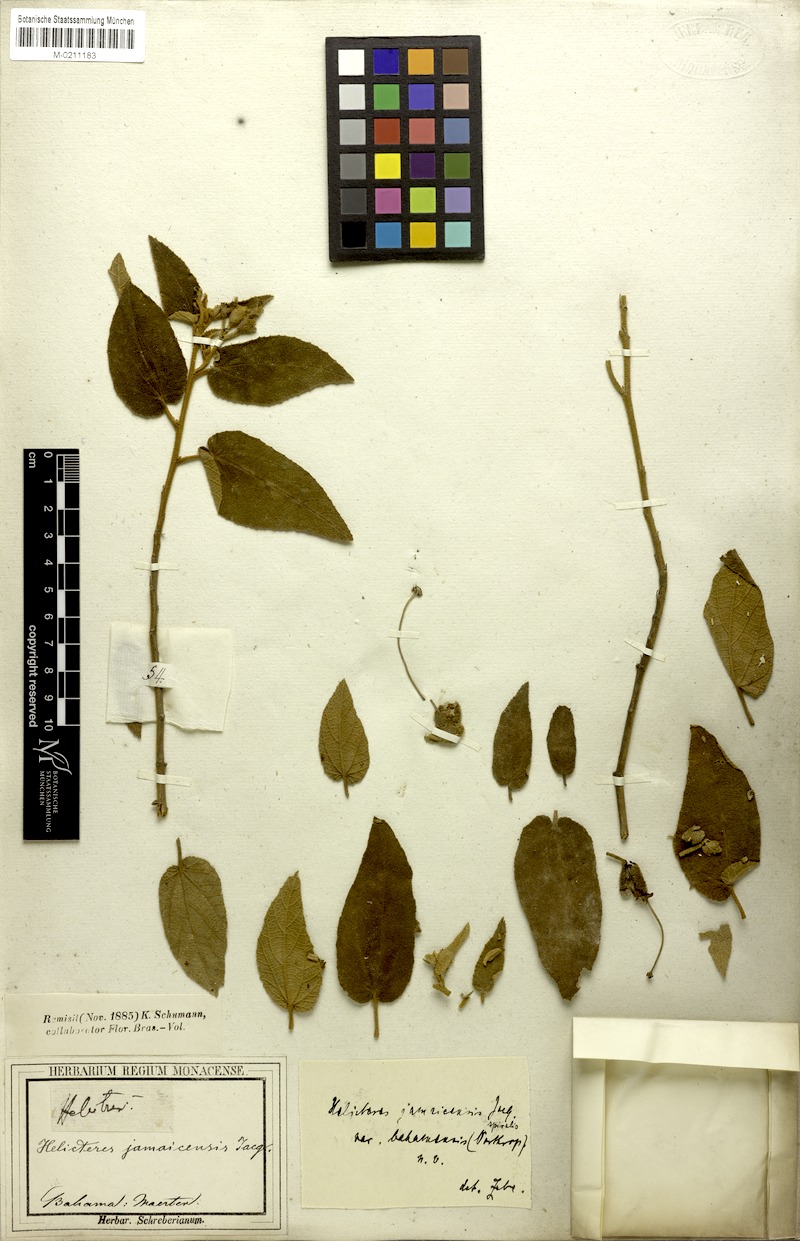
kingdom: Plantae
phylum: Tracheophyta
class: Magnoliopsida
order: Malvales
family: Malvaceae
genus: Helicteres
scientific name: Helicteres jamaicensis
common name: Cowbush
